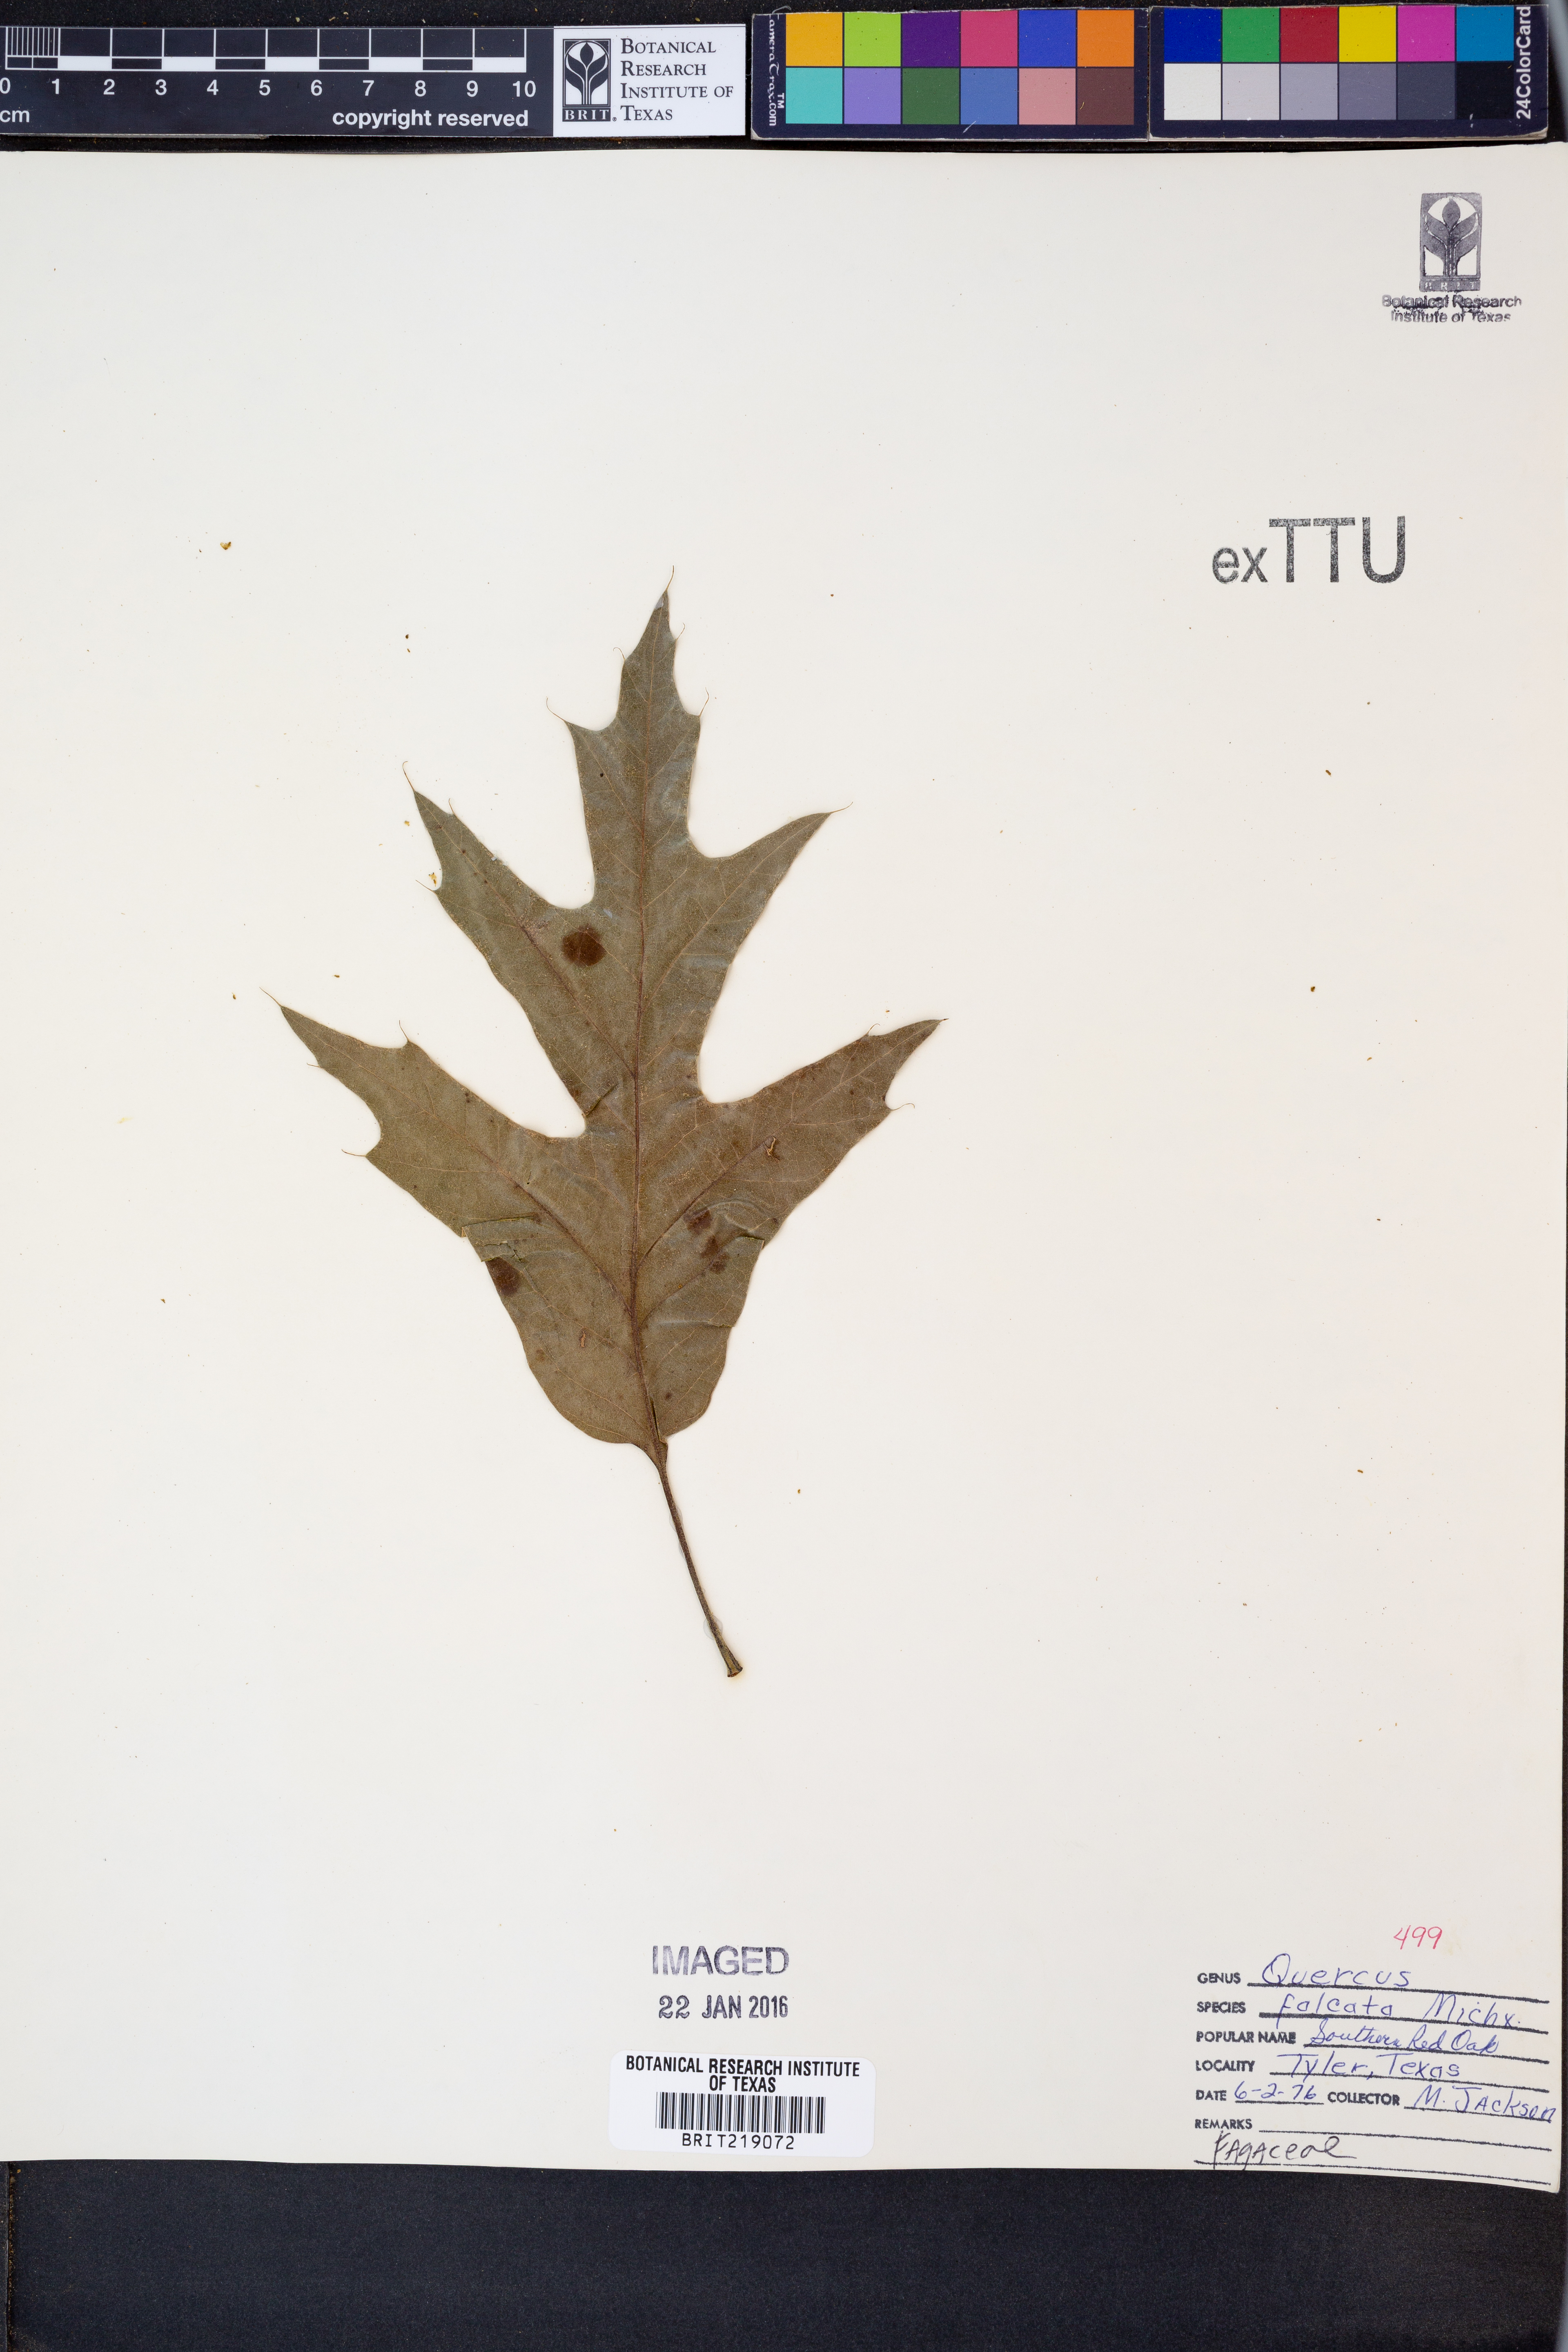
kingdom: Plantae
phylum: Tracheophyta
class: Magnoliopsida
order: Fagales
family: Fagaceae
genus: Quercus
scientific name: Quercus falcata
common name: Southern red oak
